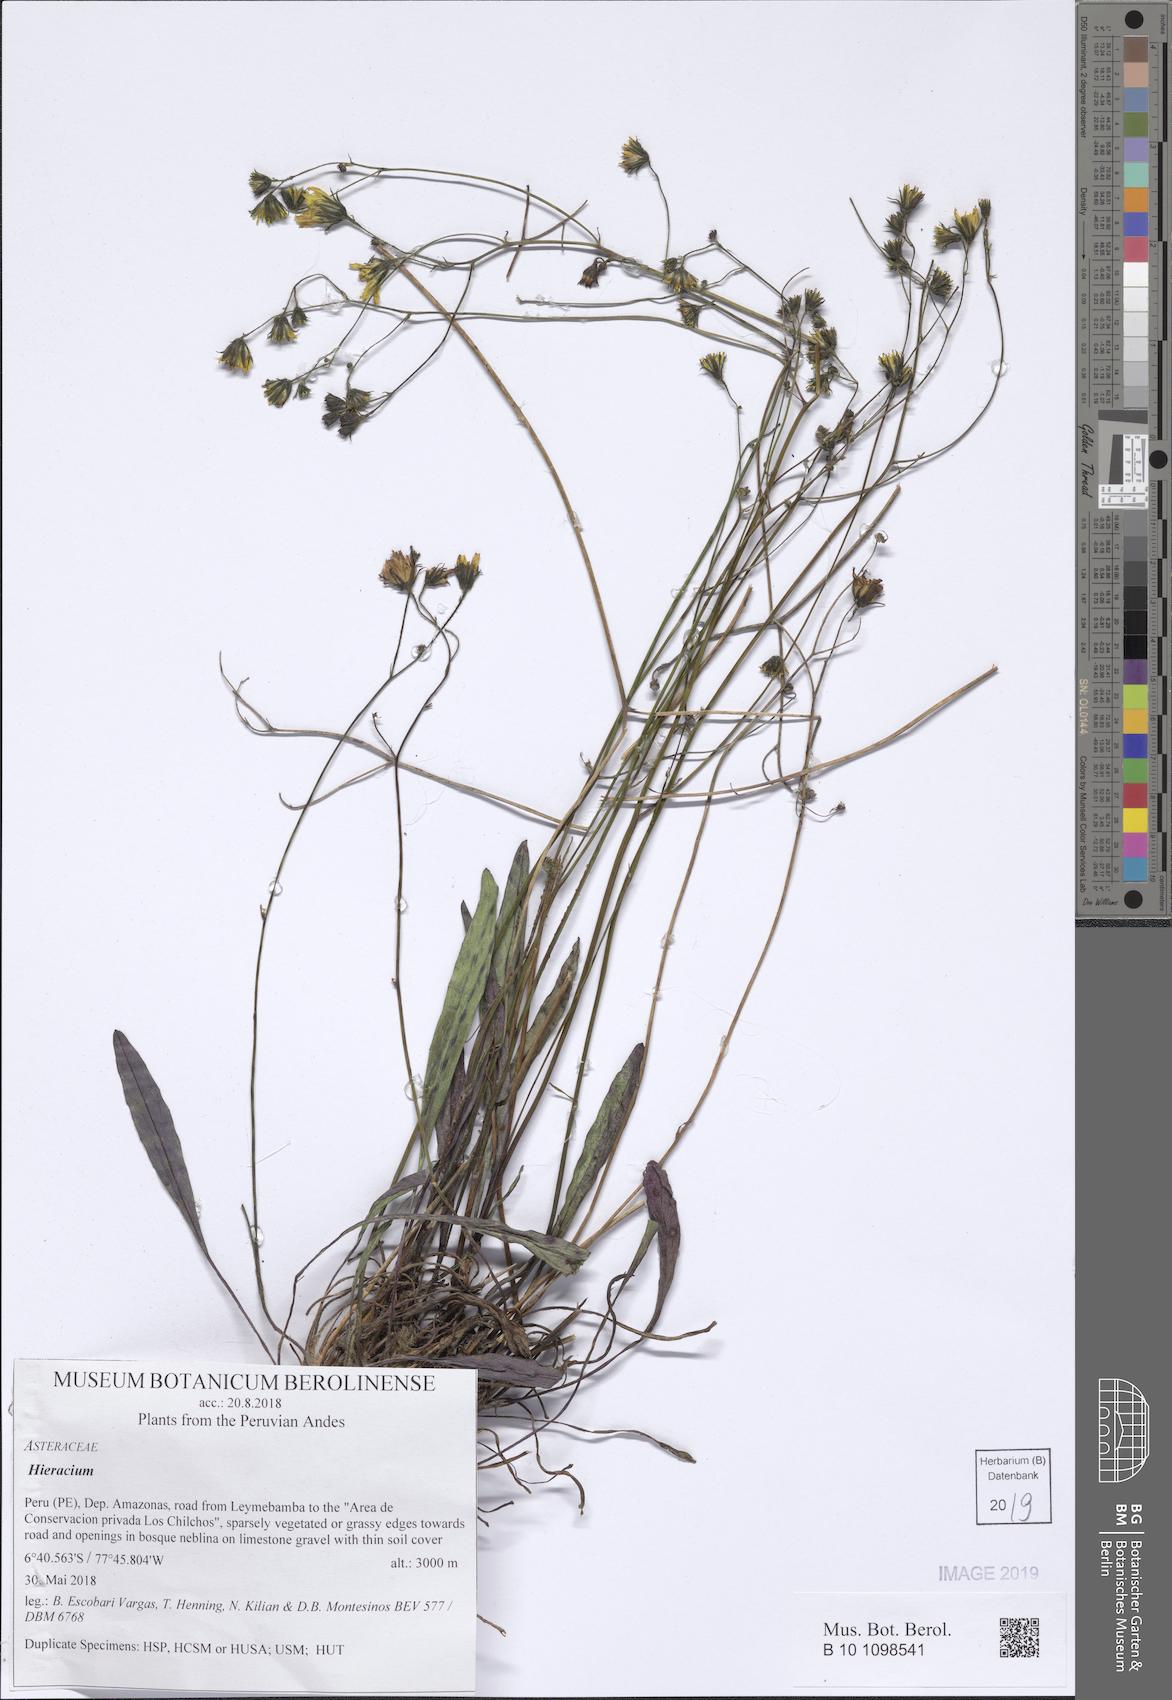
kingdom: Plantae
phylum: Tracheophyta
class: Magnoliopsida
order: Asterales
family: Asteraceae
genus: Hieracium
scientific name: Hieracium
